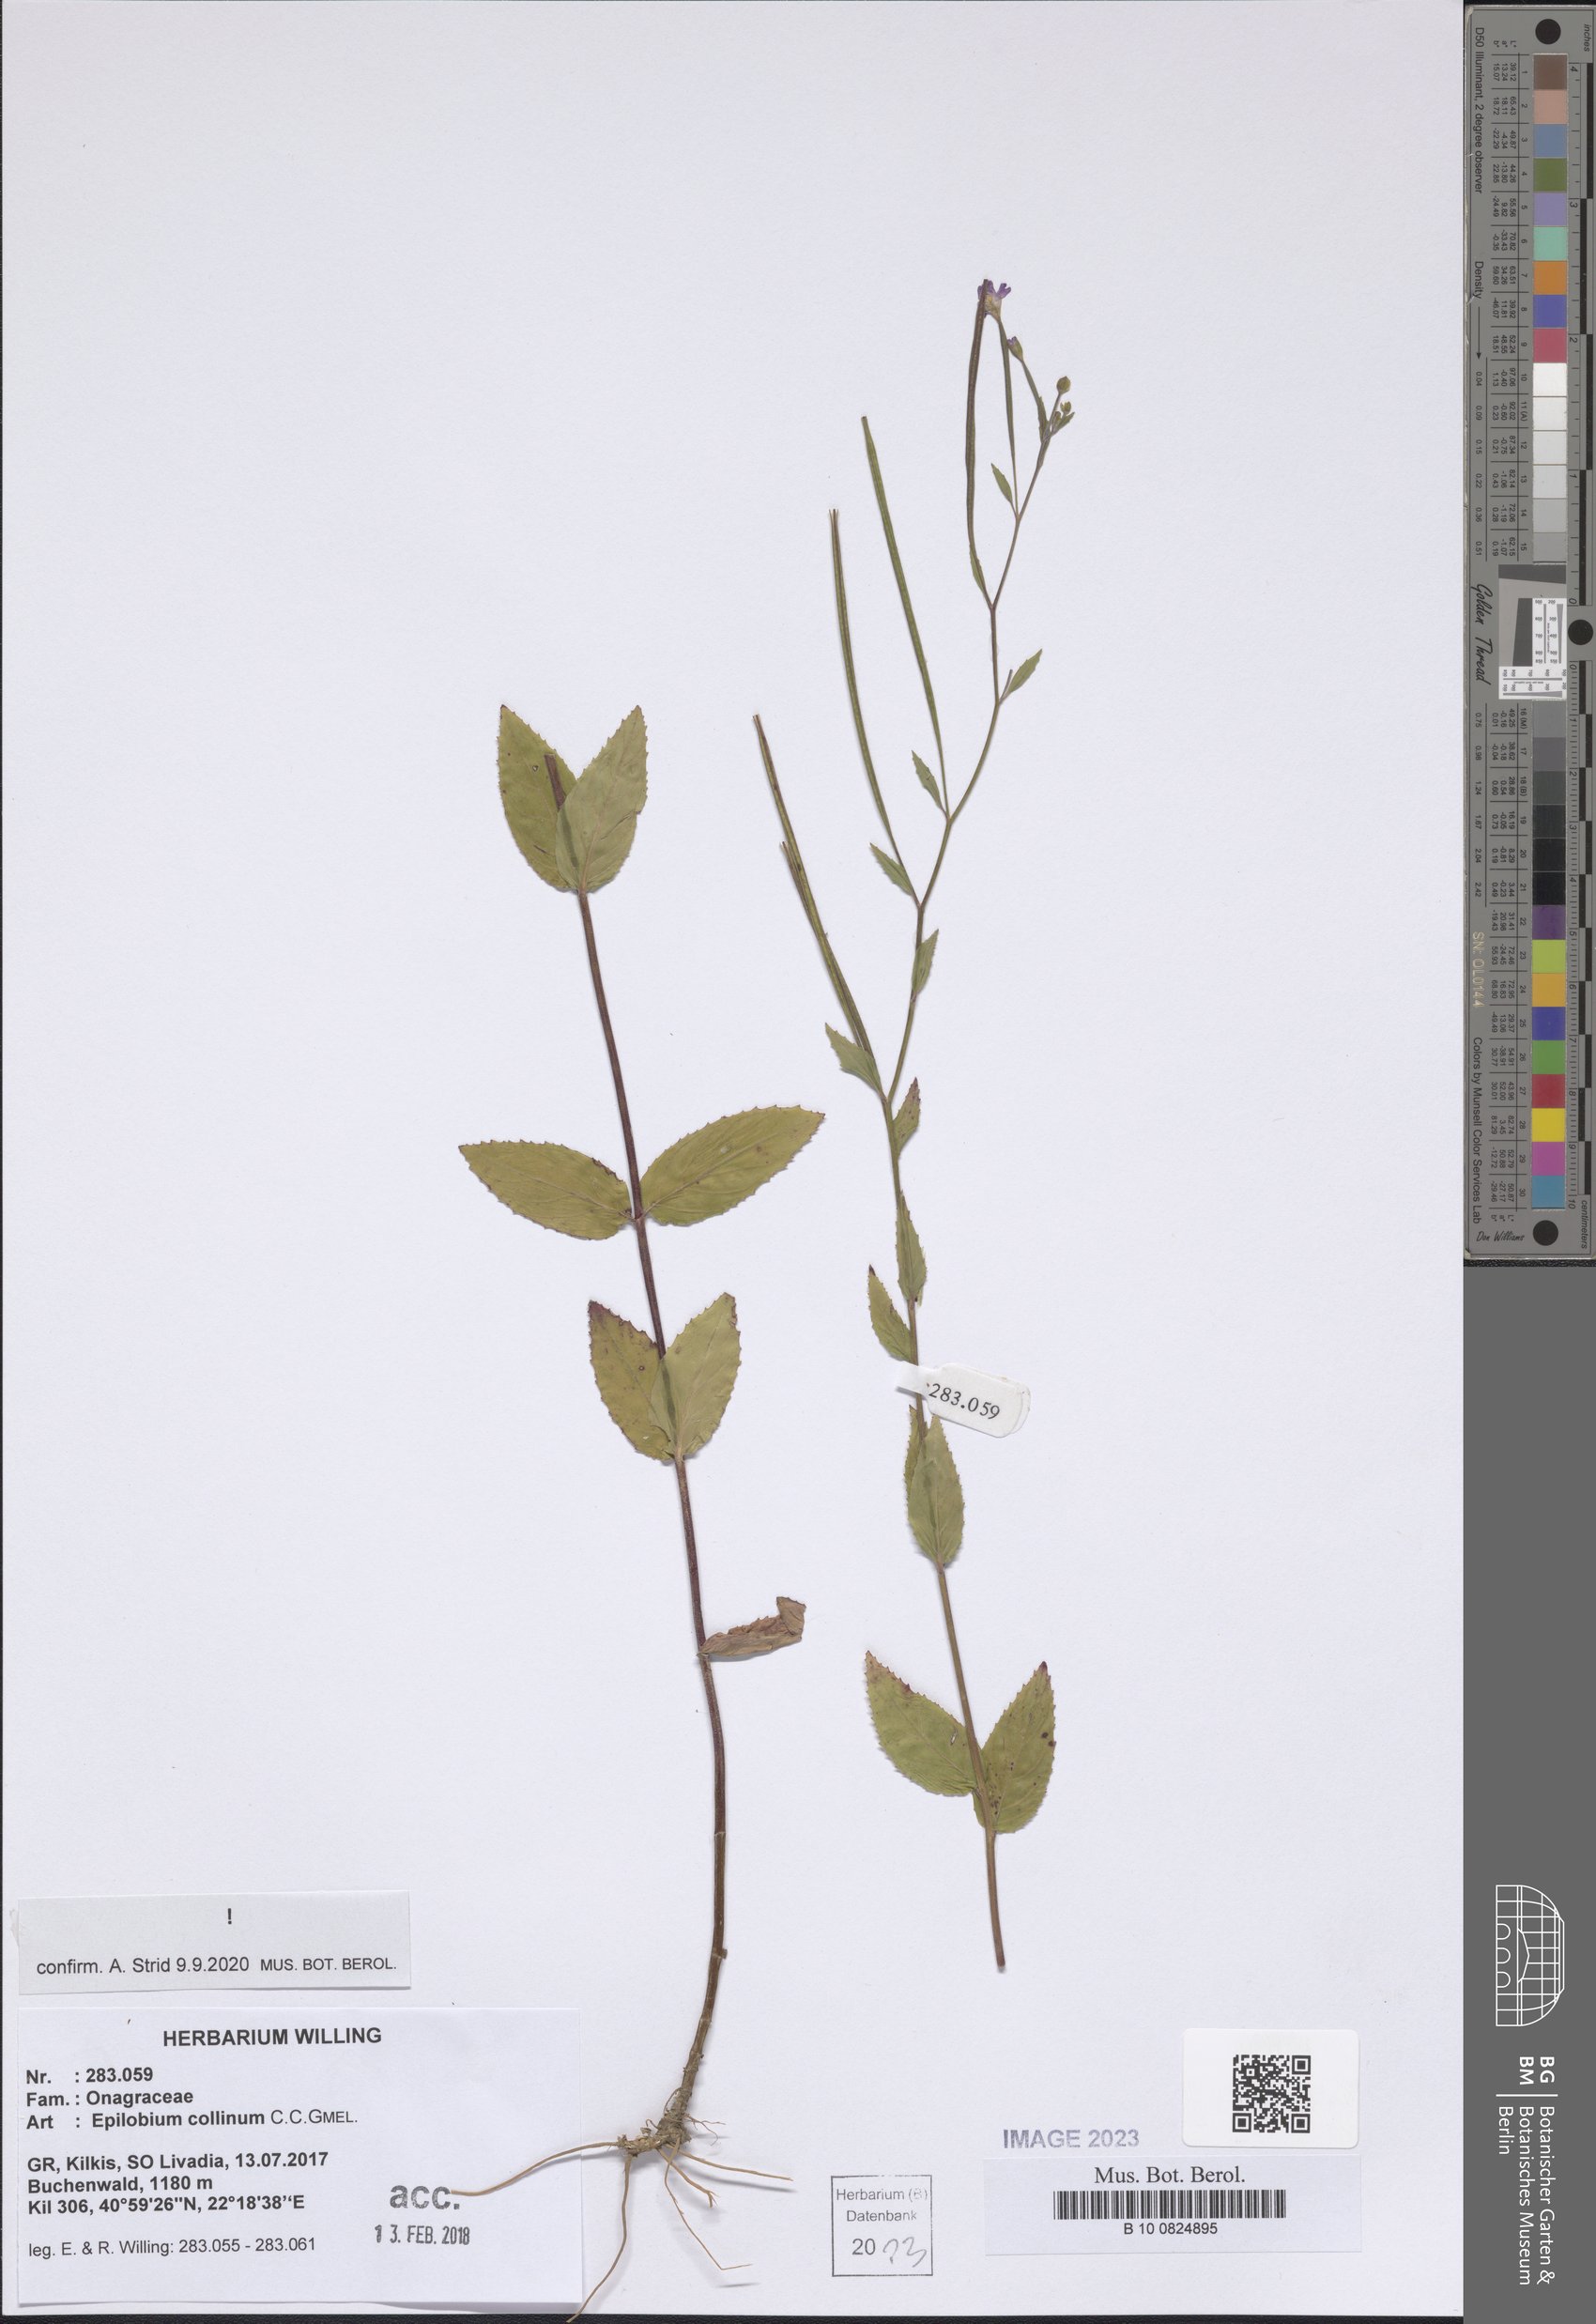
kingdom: Plantae
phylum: Tracheophyta
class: Magnoliopsida
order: Myrtales
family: Onagraceae
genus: Epilobium
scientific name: Epilobium collinum
